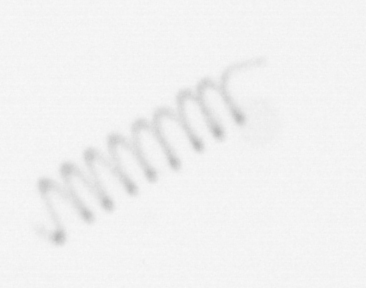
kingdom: Chromista
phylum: Ochrophyta
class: Bacillariophyceae
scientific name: Bacillariophyceae
